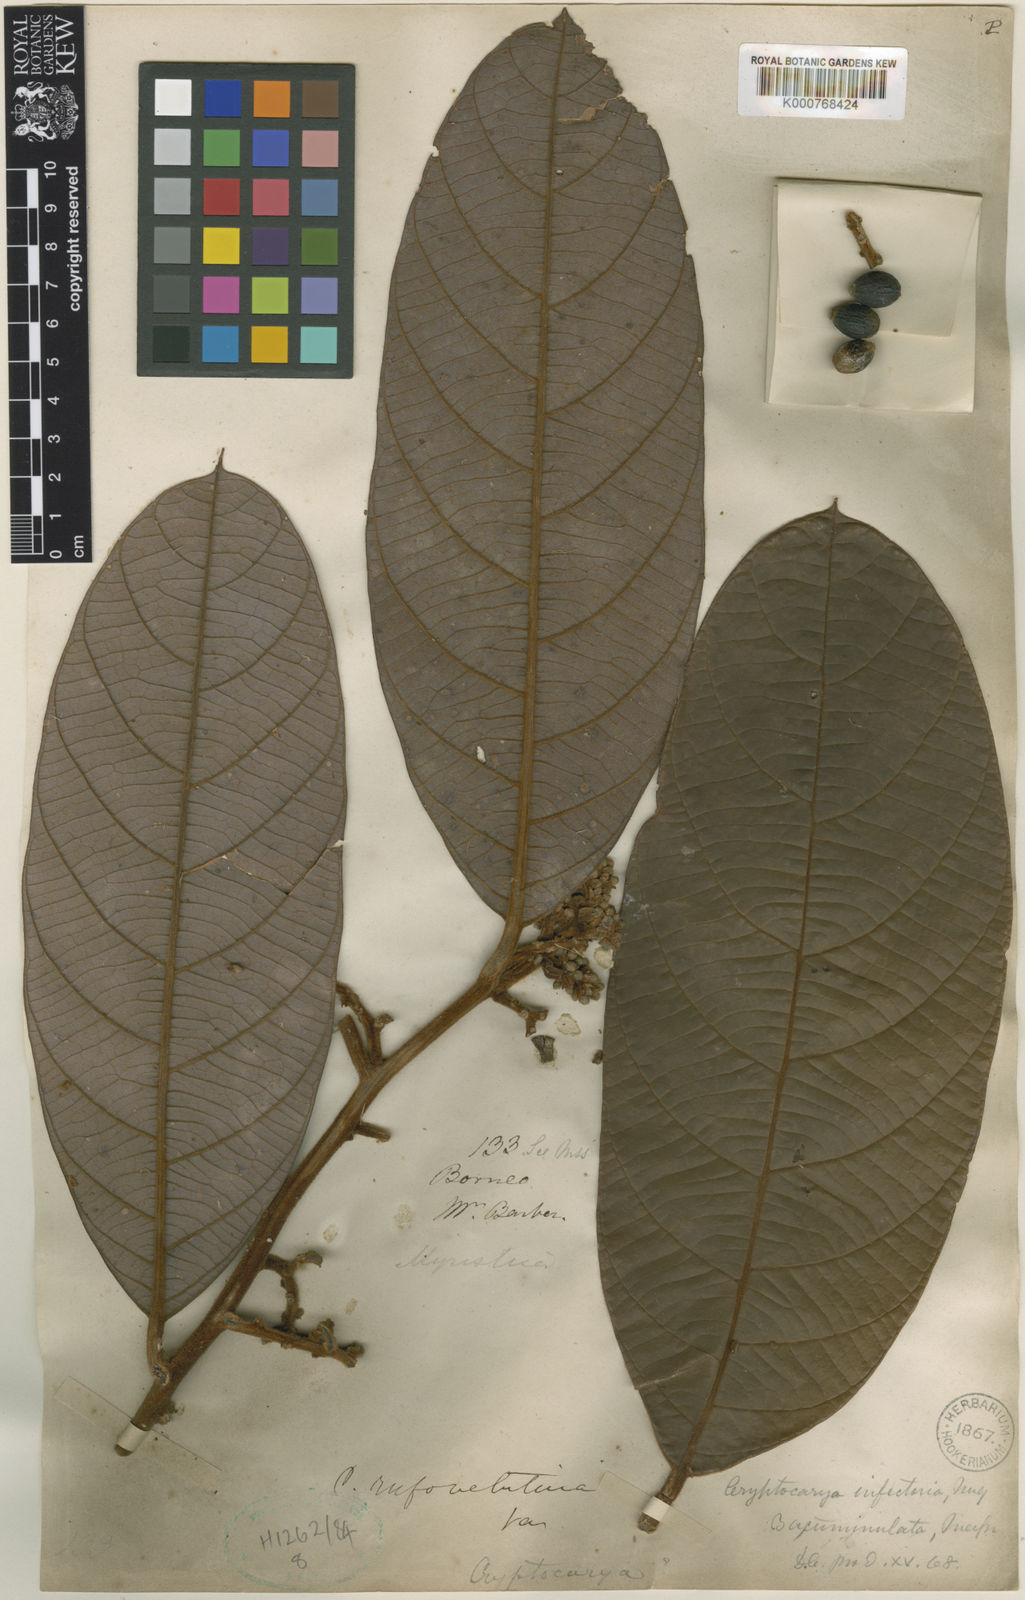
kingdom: Plantae
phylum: Tracheophyta
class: Magnoliopsida
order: Laurales
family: Lauraceae
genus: Cryptocarya
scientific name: Cryptocarya diversifolia
